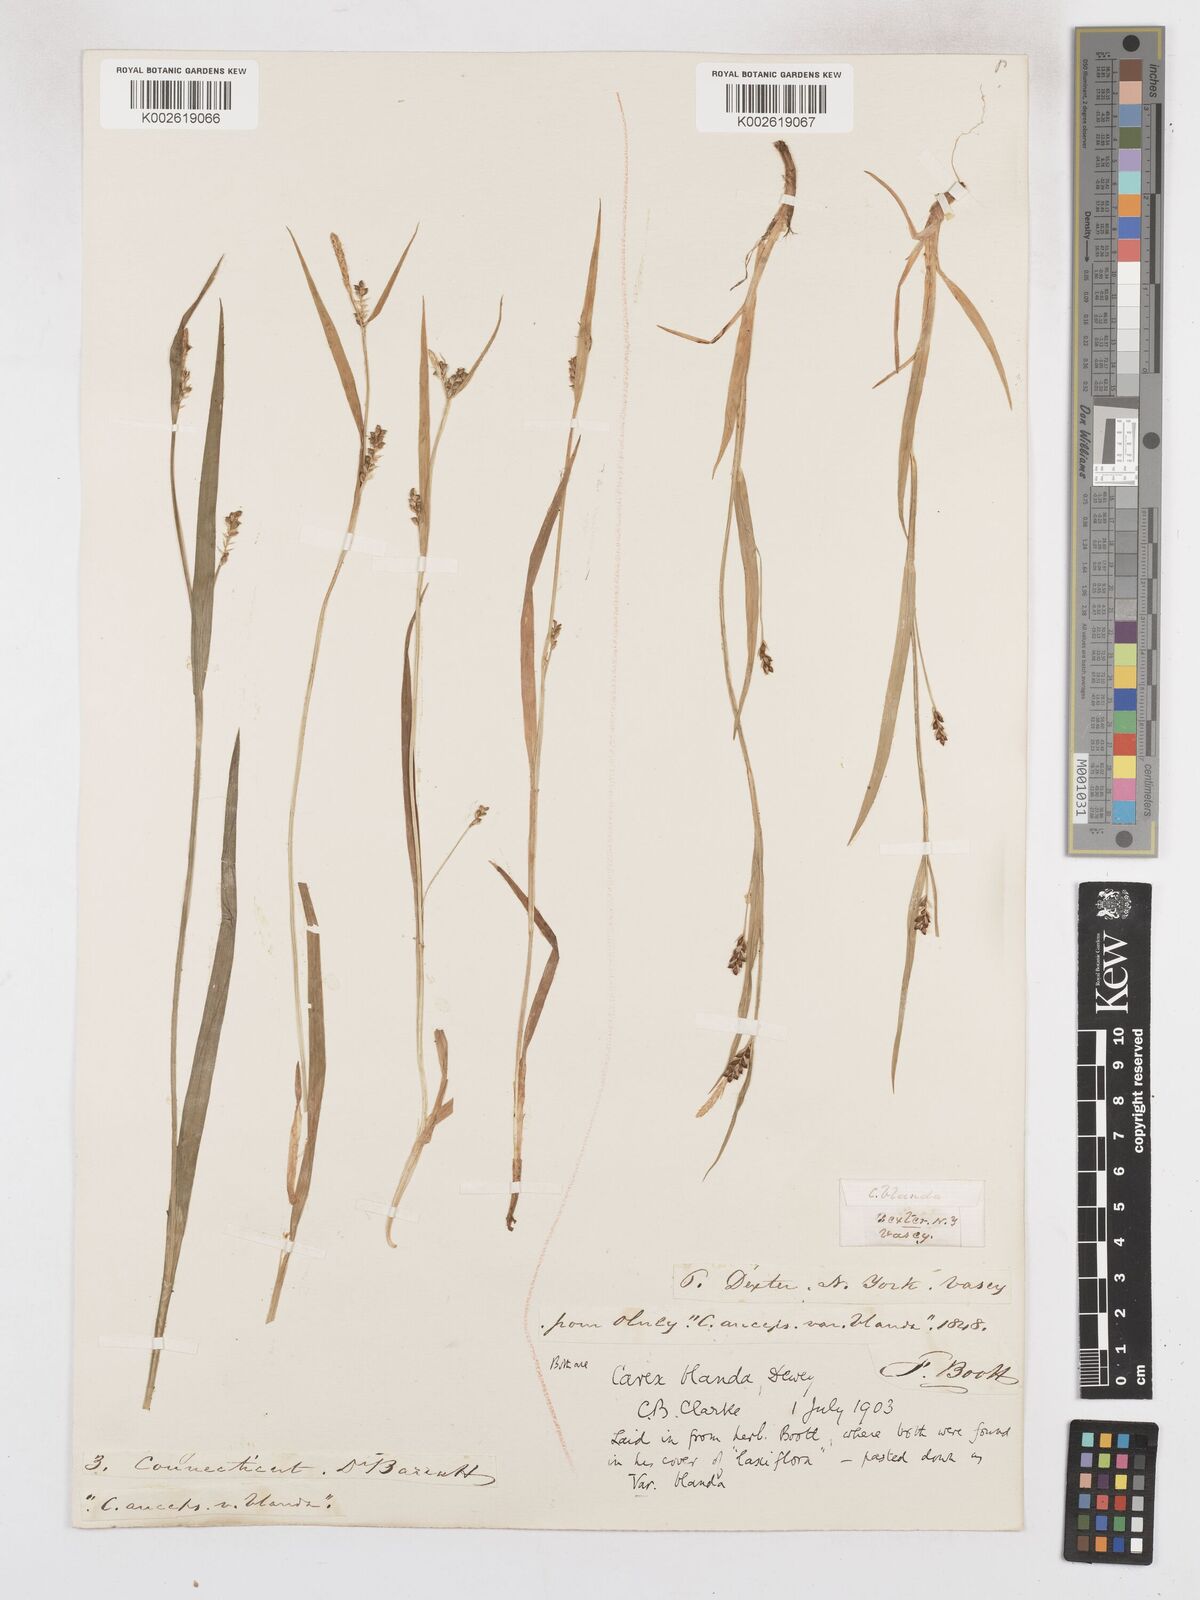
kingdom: Plantae
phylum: Tracheophyta
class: Liliopsida
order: Poales
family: Cyperaceae
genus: Carex
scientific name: Carex blanda
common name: Bland sedge
